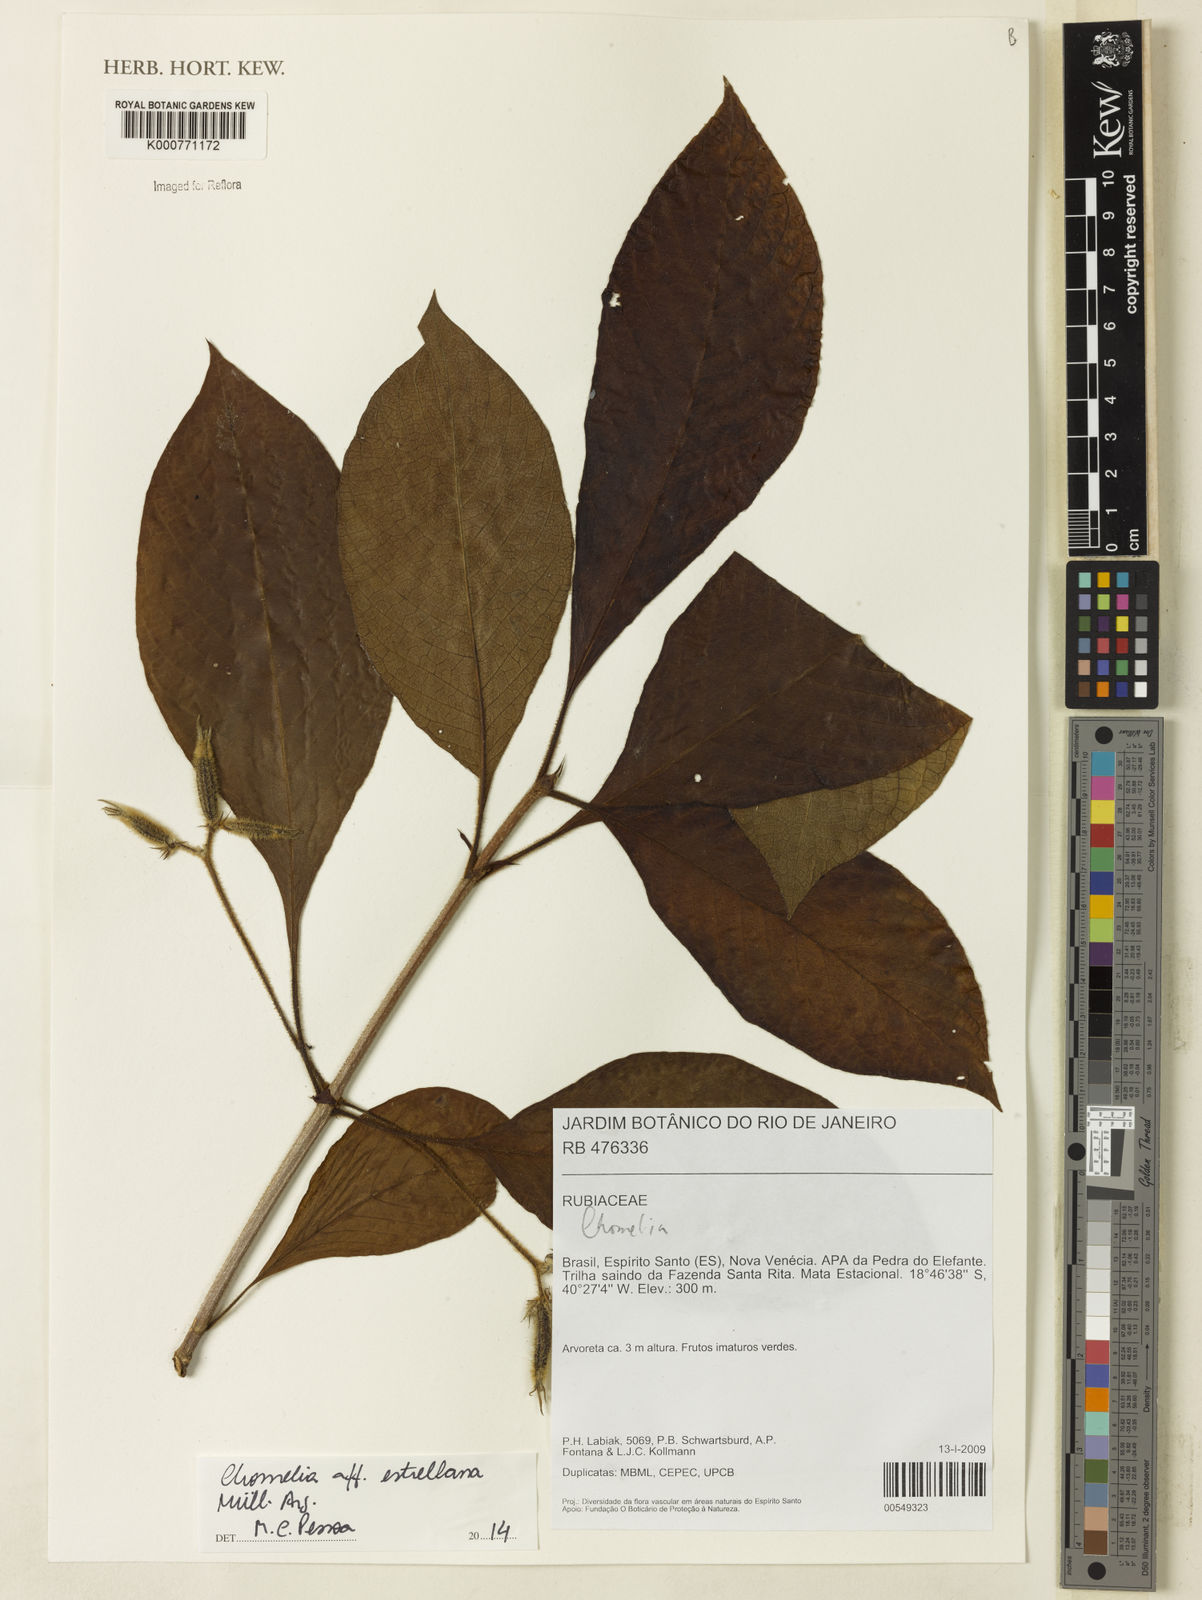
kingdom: Plantae
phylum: Tracheophyta
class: Magnoliopsida
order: Gentianales
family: Rubiaceae
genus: Chomelia
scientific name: Chomelia
